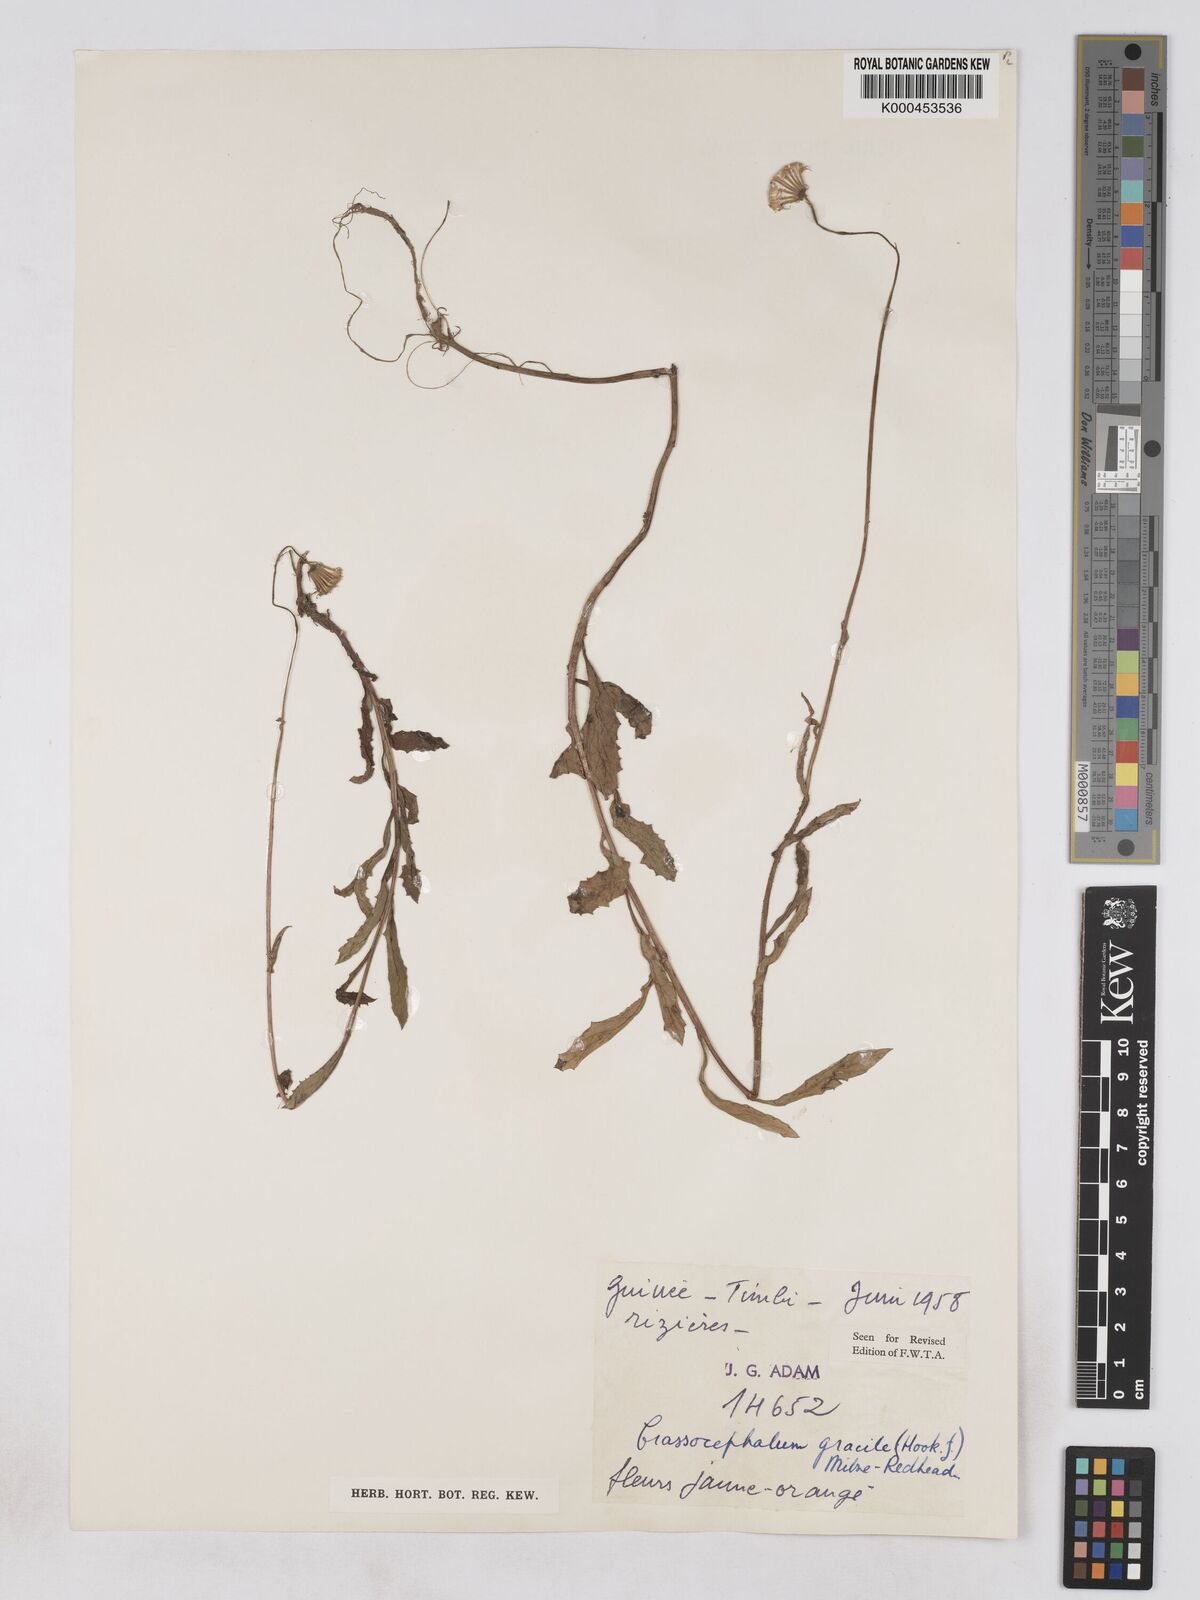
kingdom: Plantae
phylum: Tracheophyta
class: Magnoliopsida
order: Asterales
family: Asteraceae
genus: Crassocephalum
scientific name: Crassocephalum gracile
